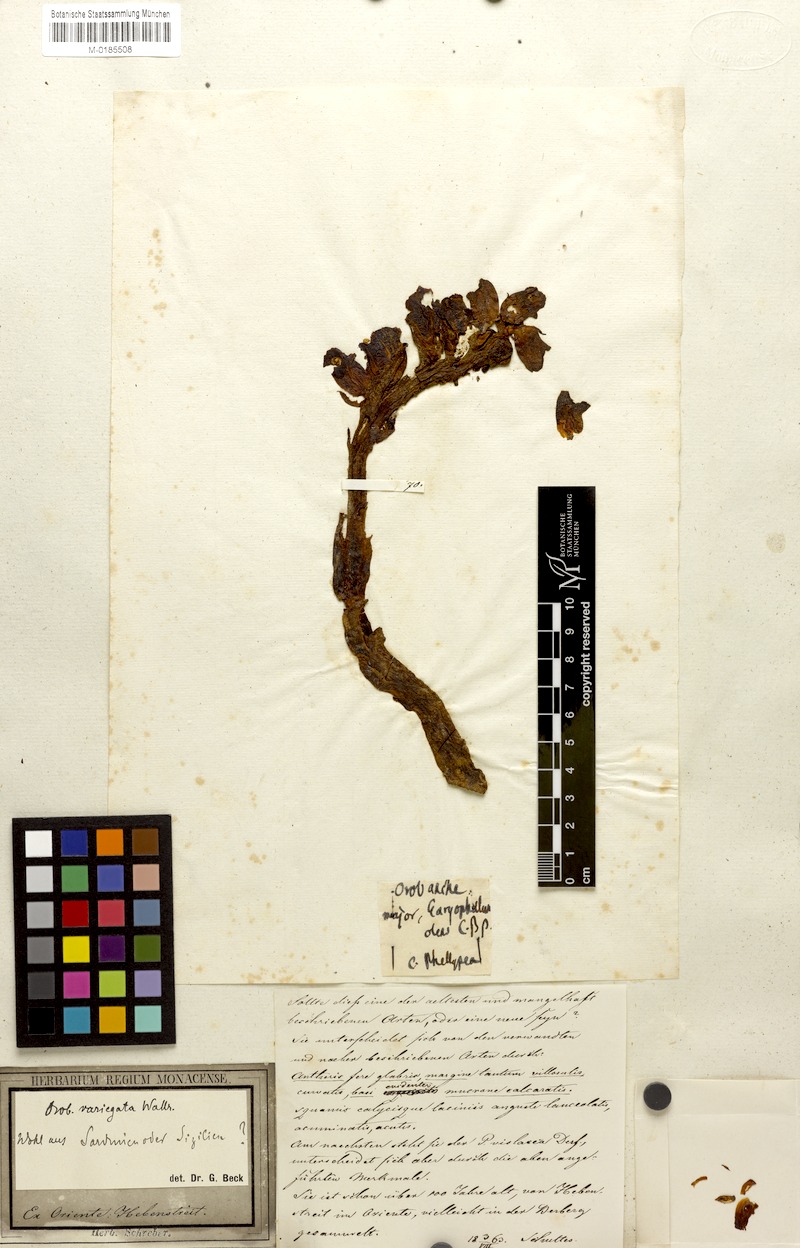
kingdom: Plantae
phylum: Tracheophyta
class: Magnoliopsida
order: Lamiales
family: Orobanchaceae
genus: Orobanche
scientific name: Orobanche variegata
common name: Variegated broomrape
